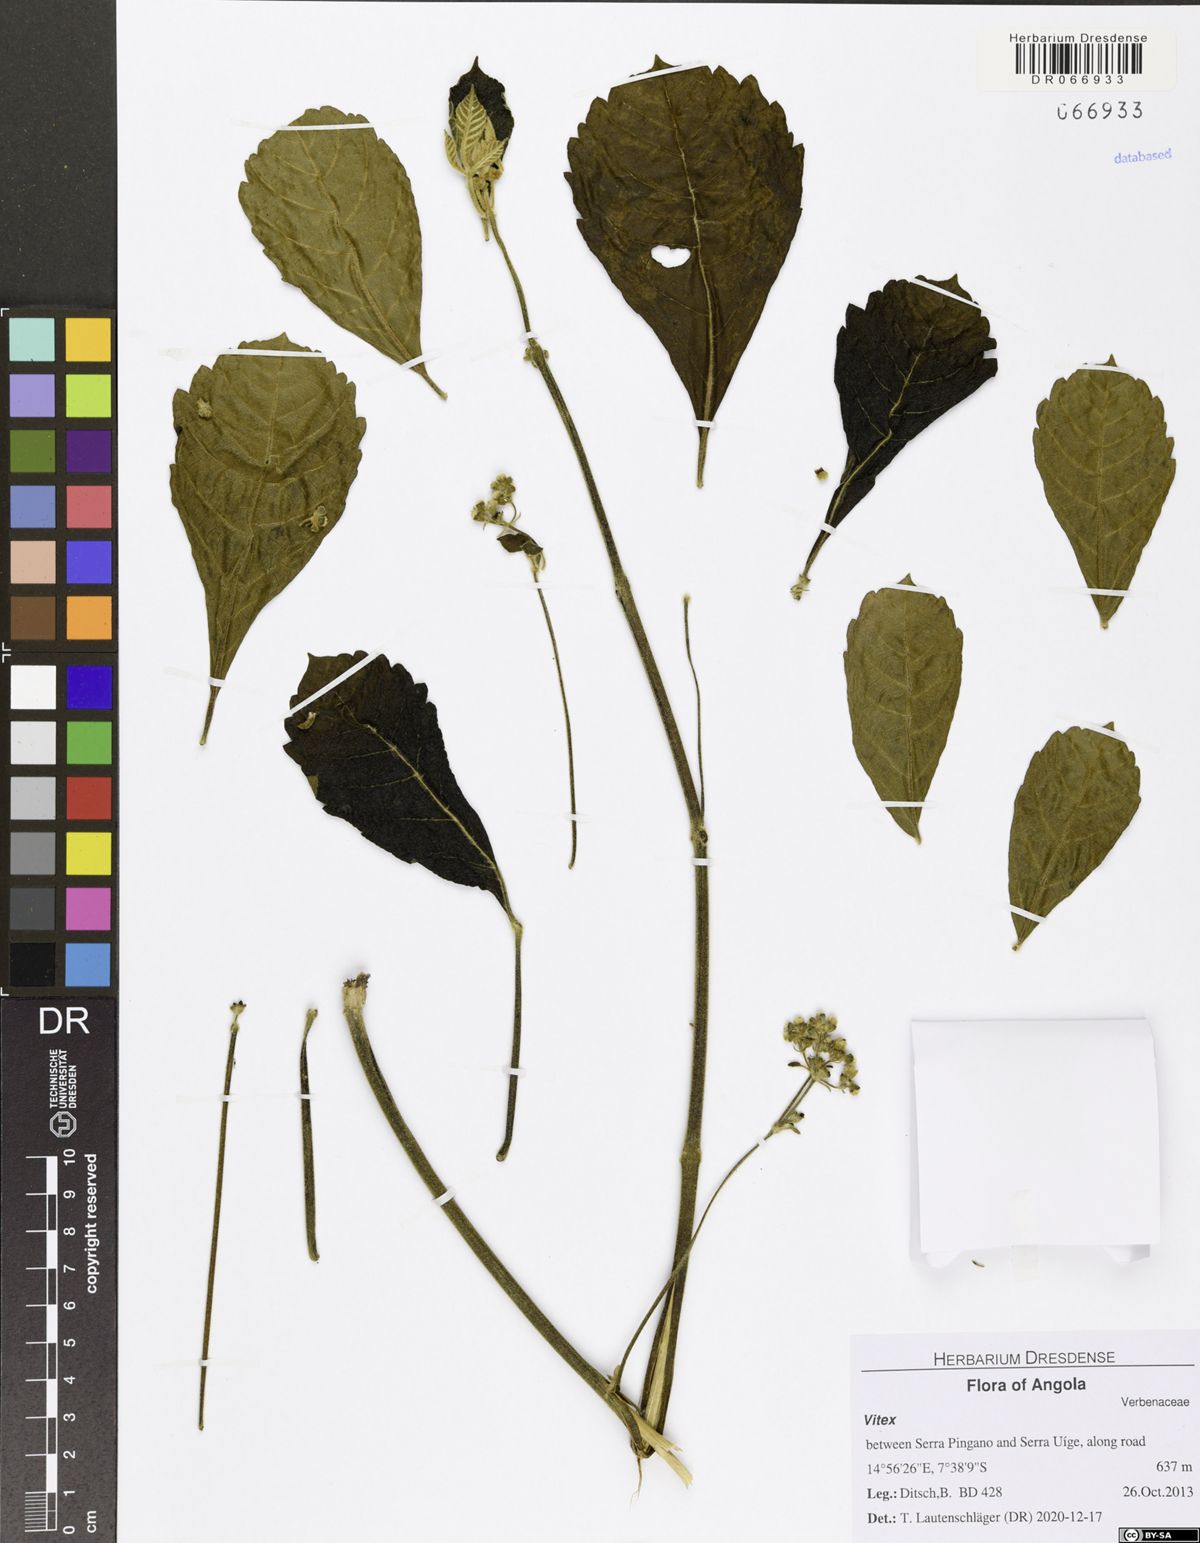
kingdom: Plantae
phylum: Tracheophyta
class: Magnoliopsida
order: Lamiales
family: Lamiaceae
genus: Vitex
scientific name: Vitex madiensis
